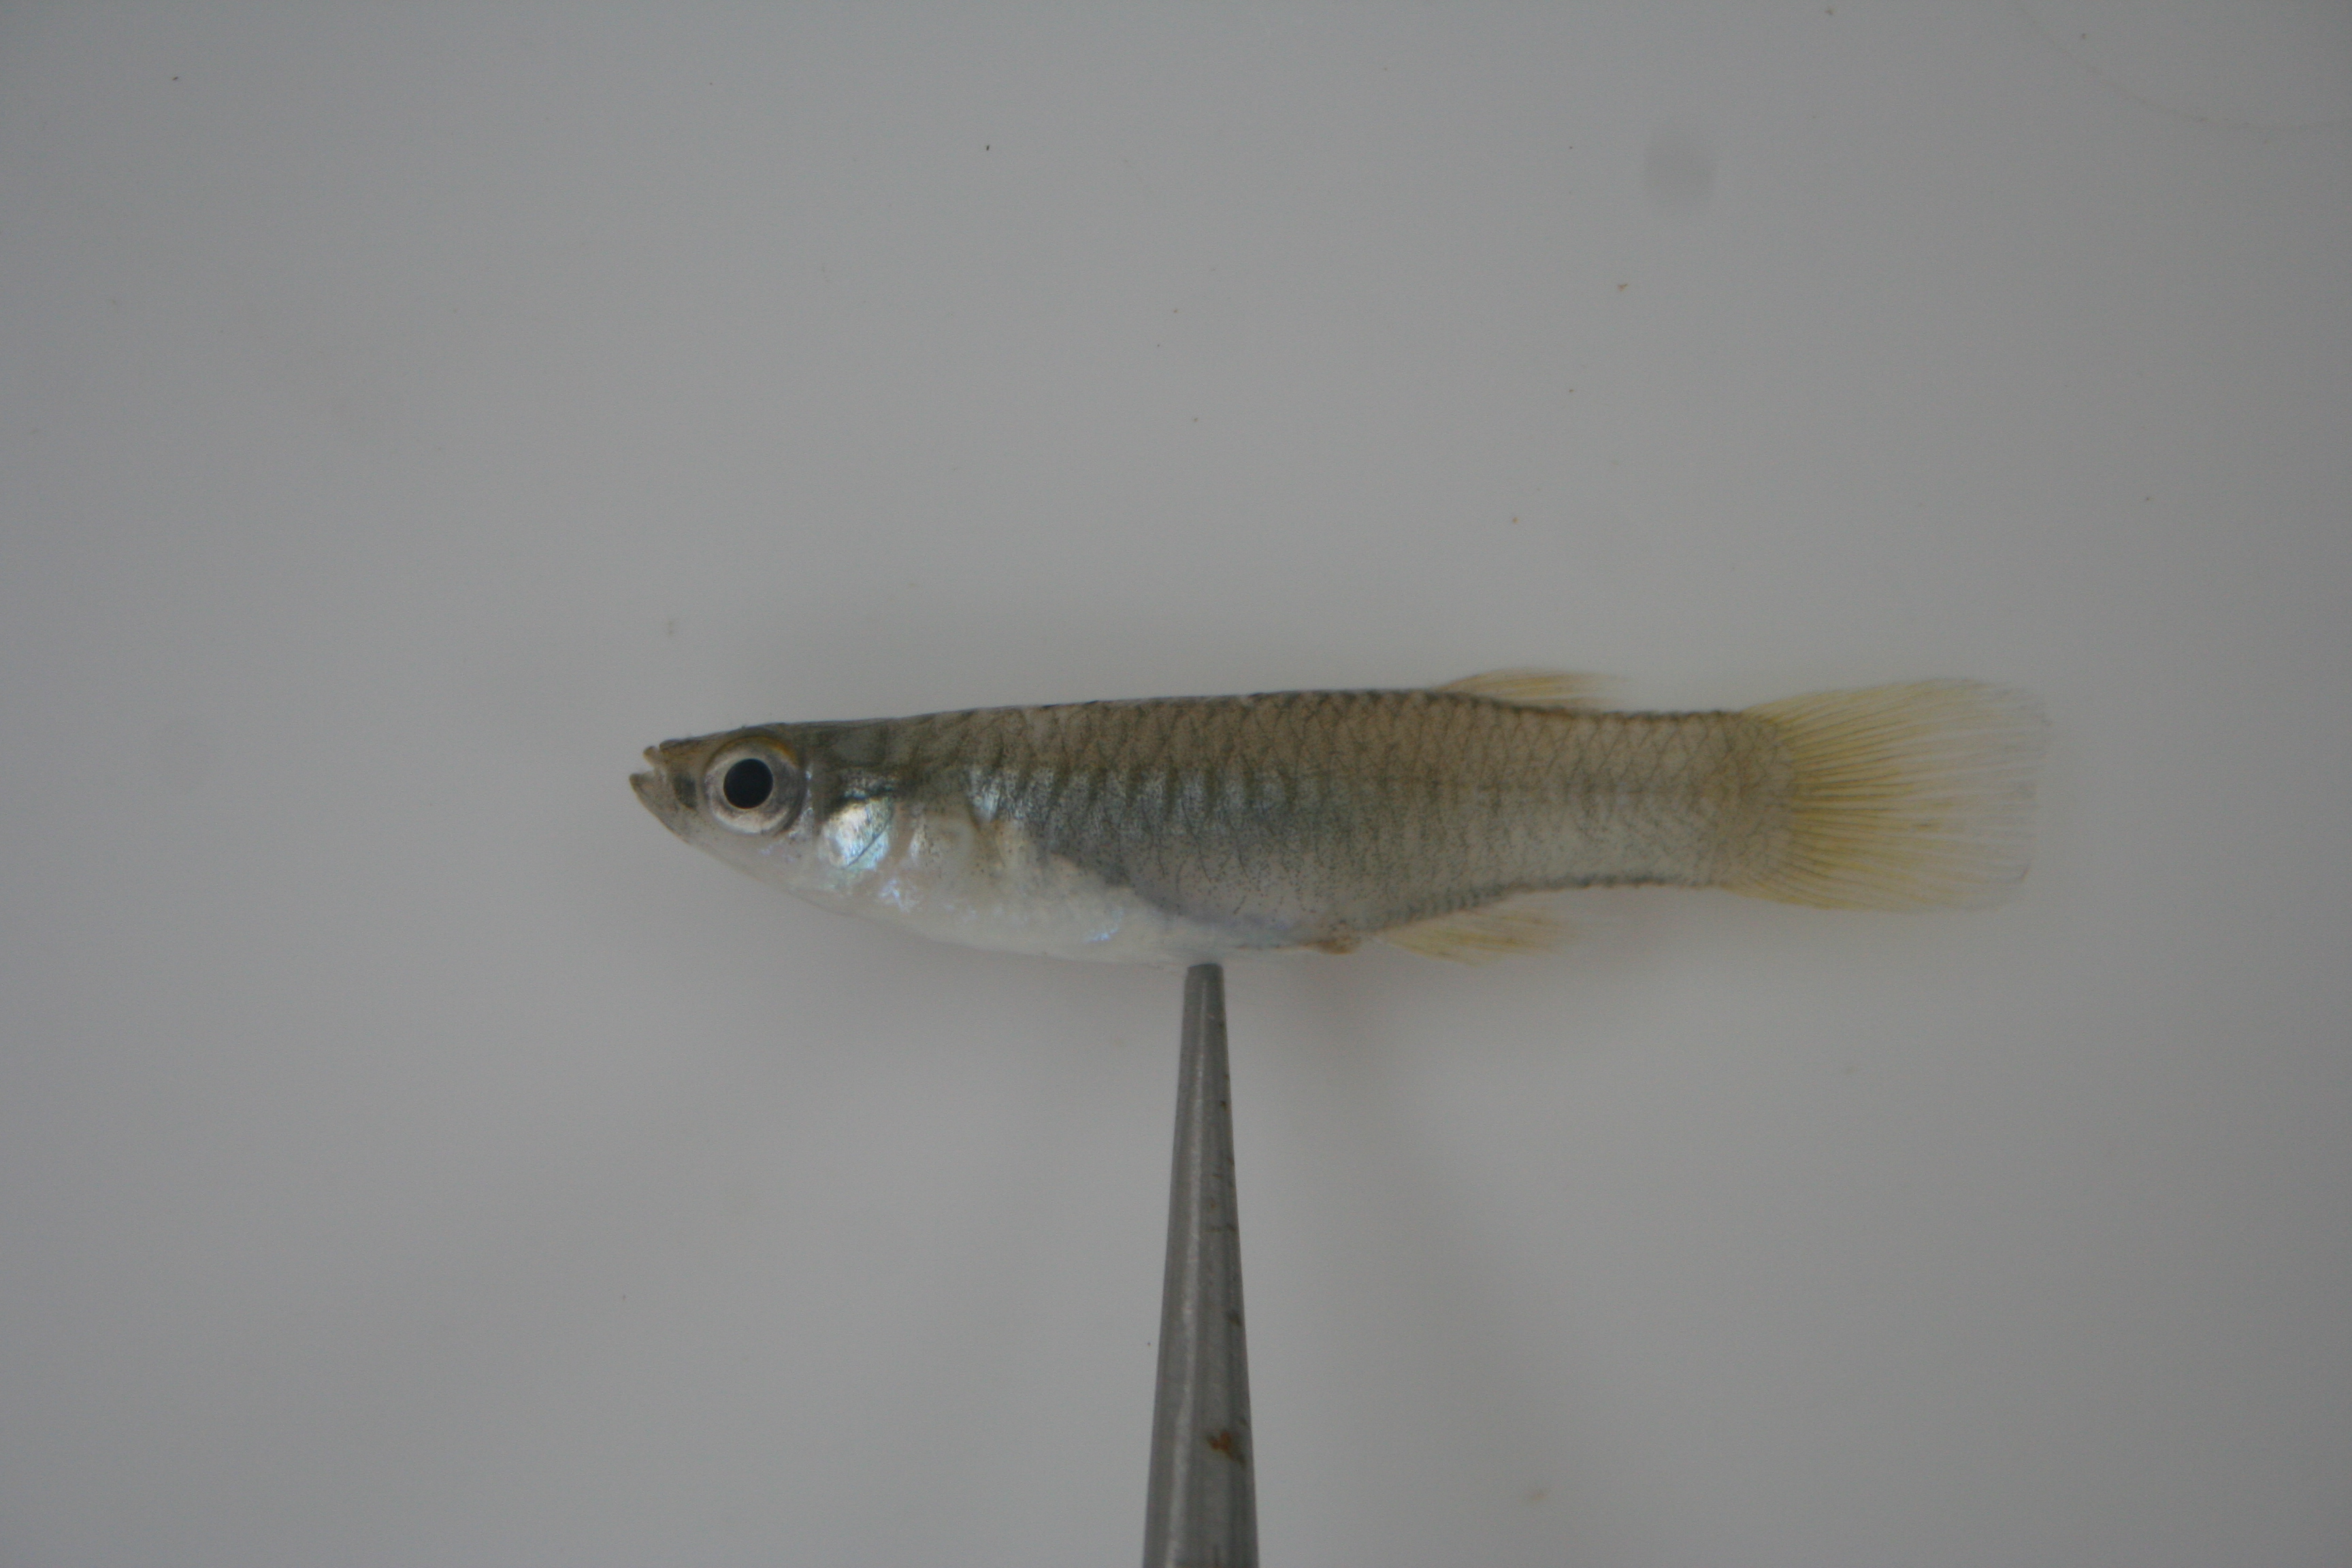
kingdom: Animalia
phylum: Chordata
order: Cyprinodontiformes
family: Poeciliidae
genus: Aplocheilichthys
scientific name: Aplocheilichthys spilauchen
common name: Banded lampeye
